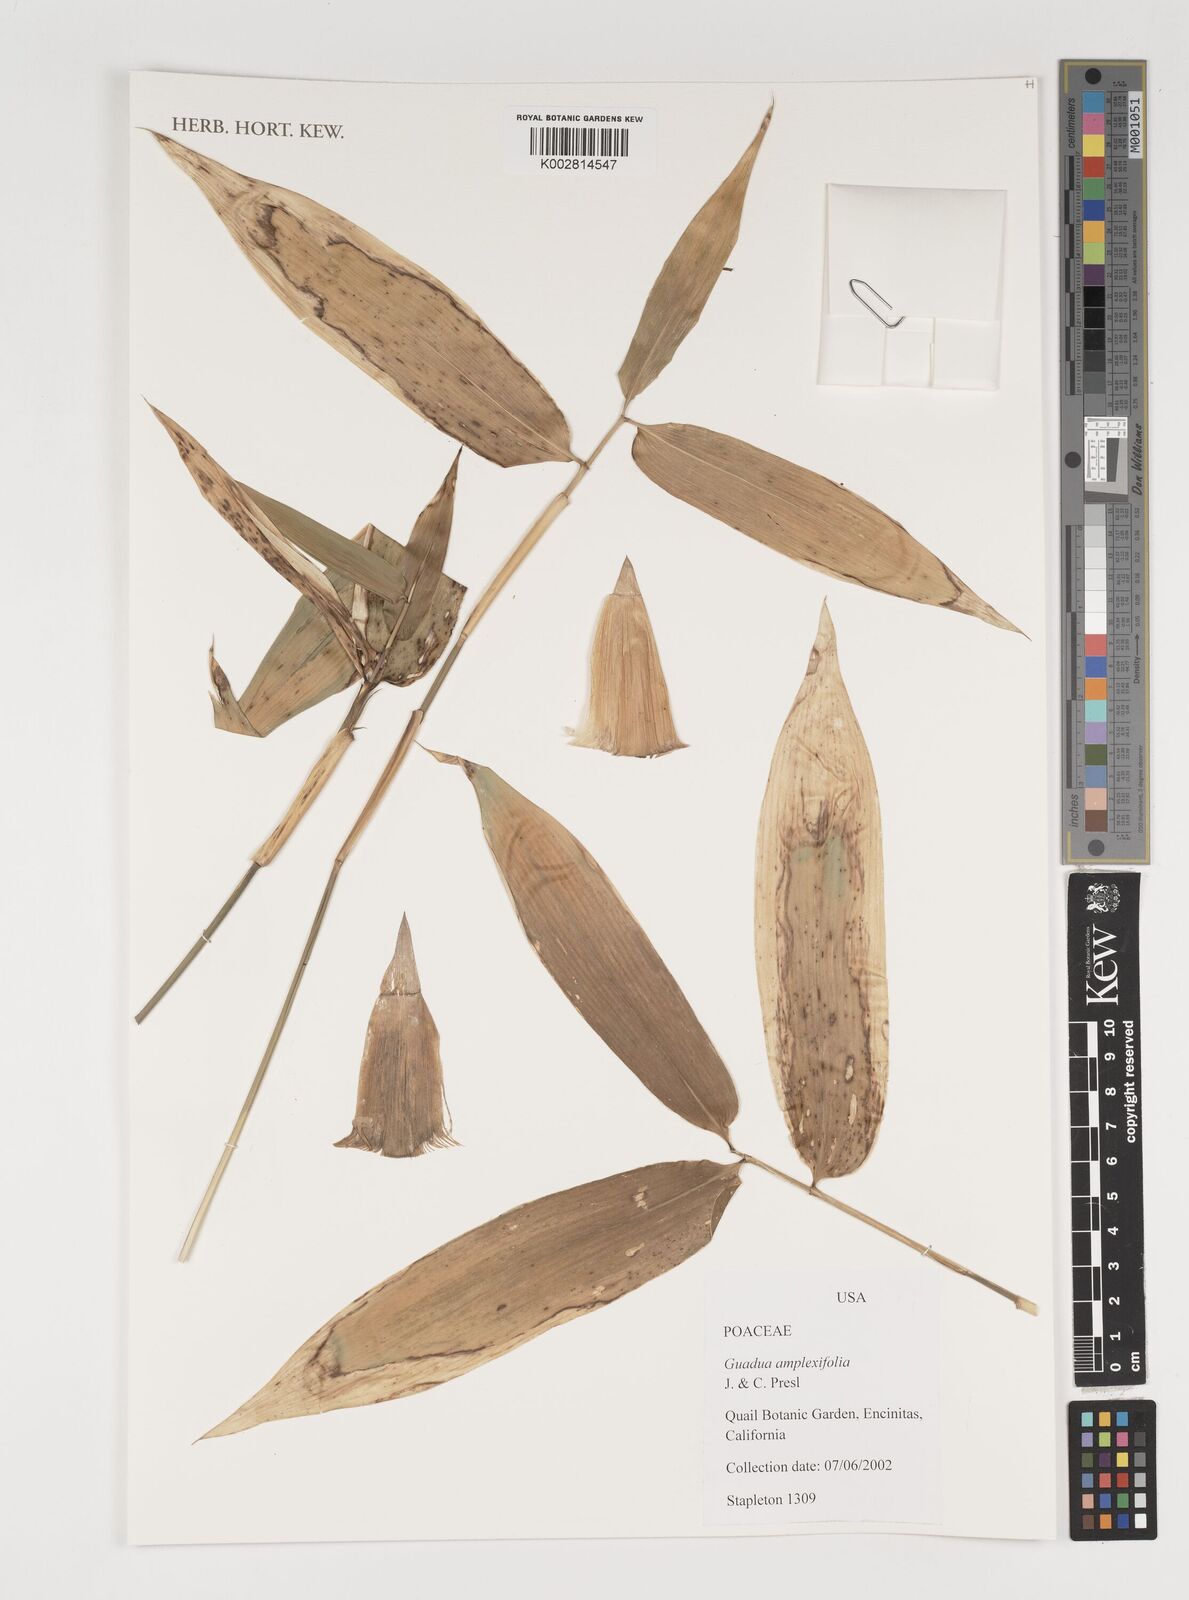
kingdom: Plantae
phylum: Tracheophyta
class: Liliopsida
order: Poales
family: Poaceae
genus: Guadua
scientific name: Guadua amplexifolia
